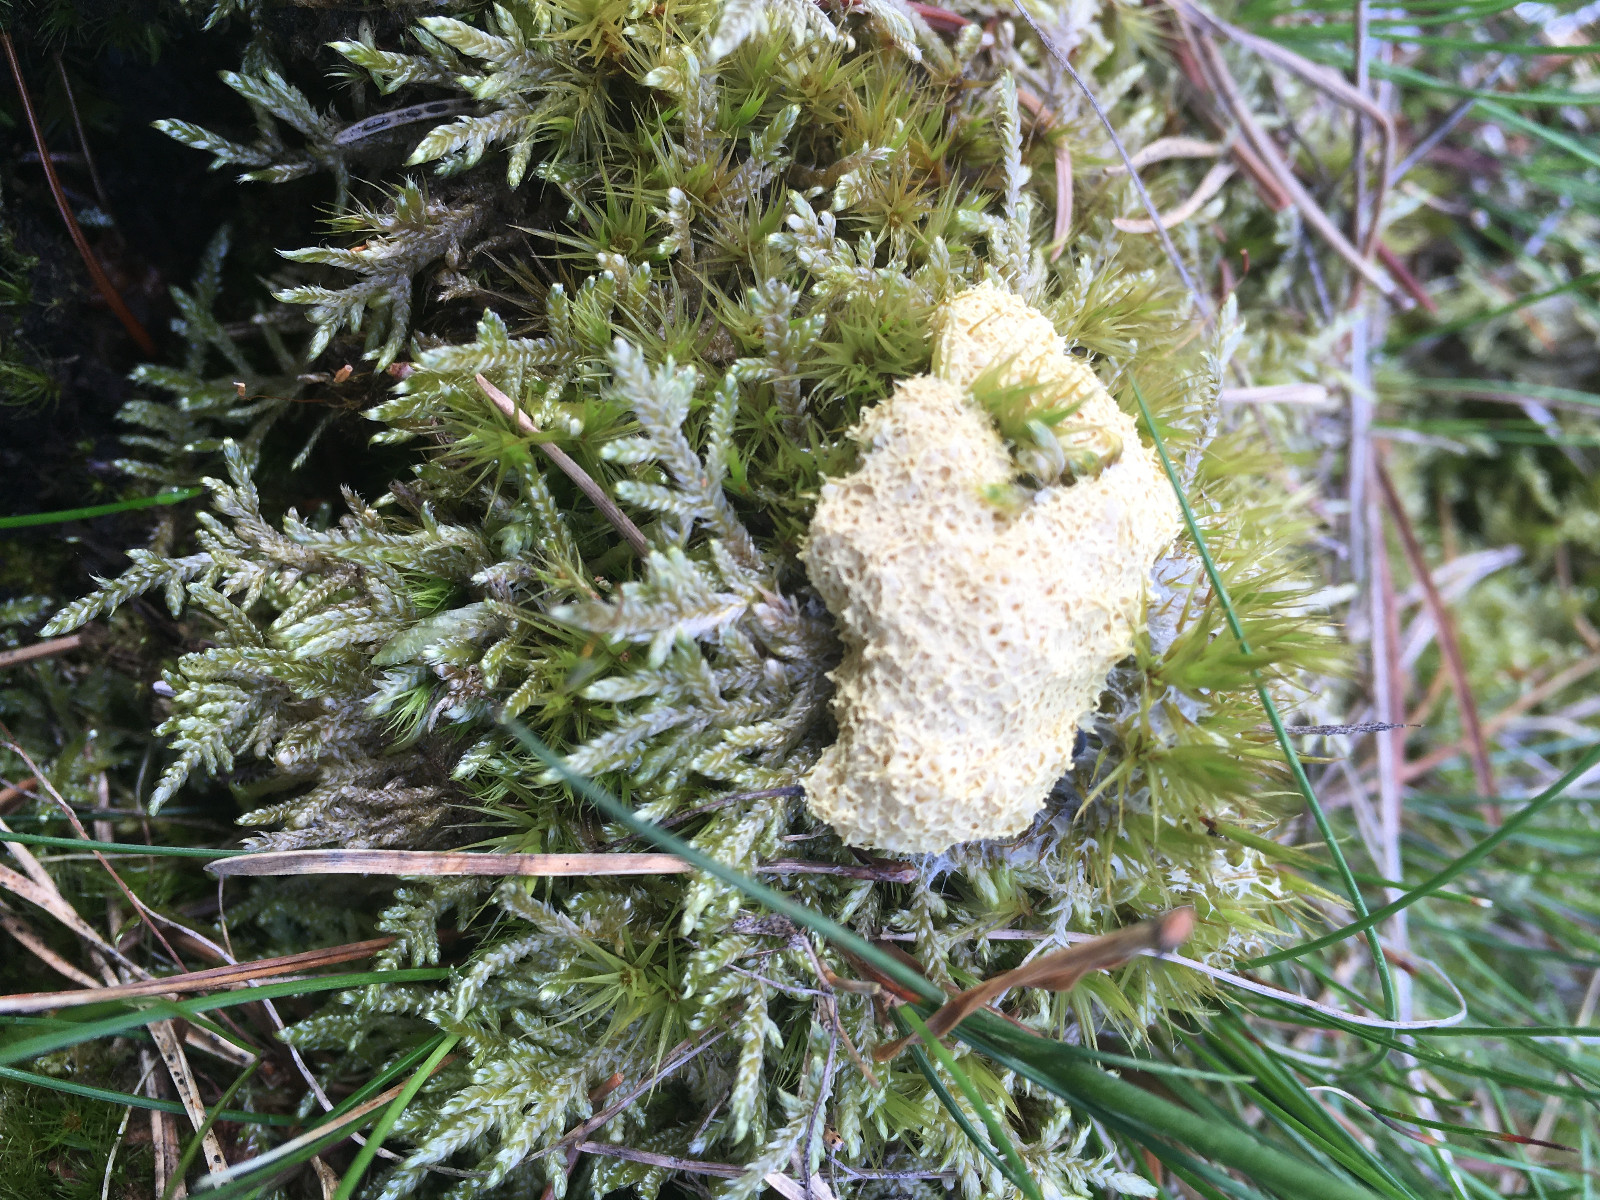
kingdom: Protozoa
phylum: Mycetozoa
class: Myxomycetes
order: Physarales
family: Physaraceae
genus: Fuligo
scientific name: Fuligo
